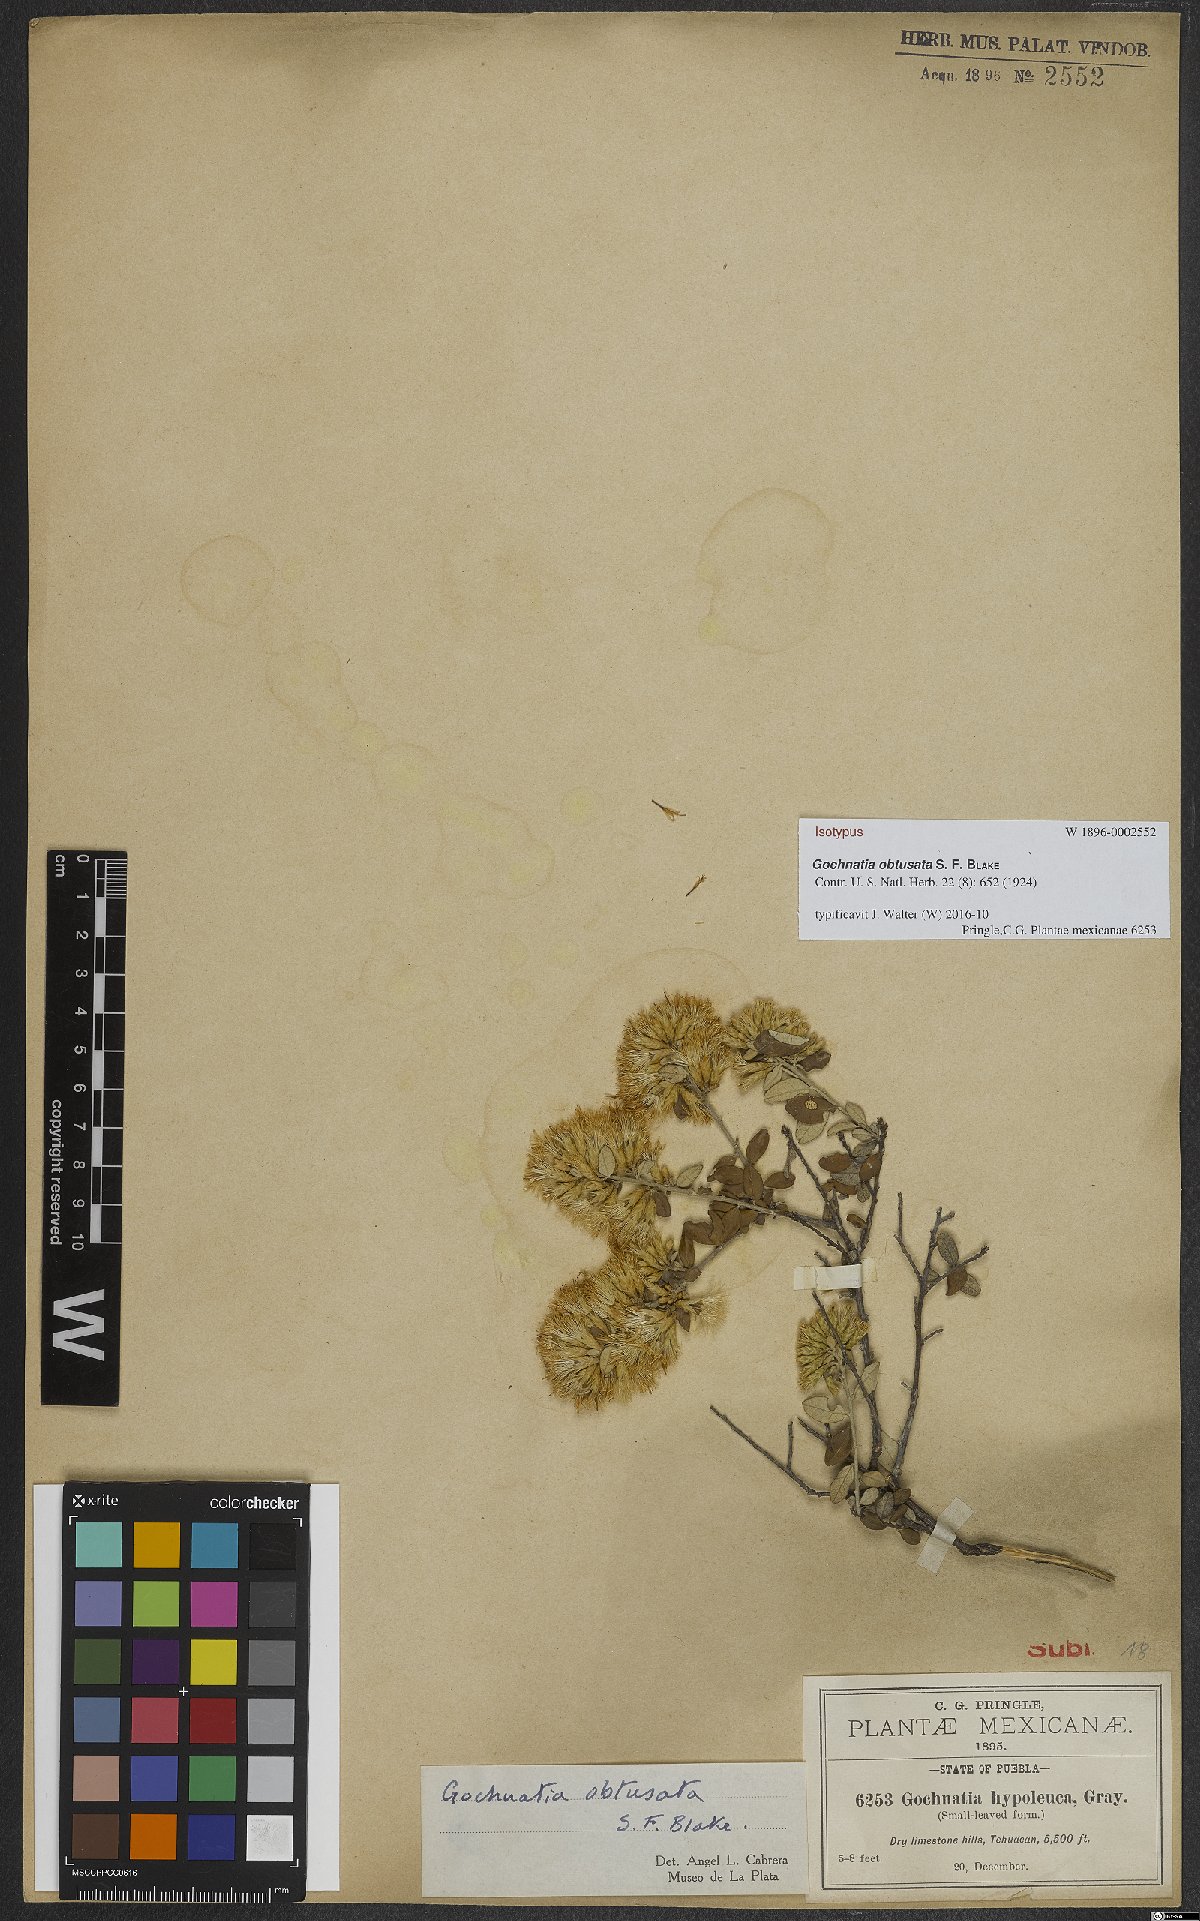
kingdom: Plantae
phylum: Tracheophyta
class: Magnoliopsida
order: Asterales
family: Asteraceae
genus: Nahuatlea
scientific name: Nahuatlea obtusata
